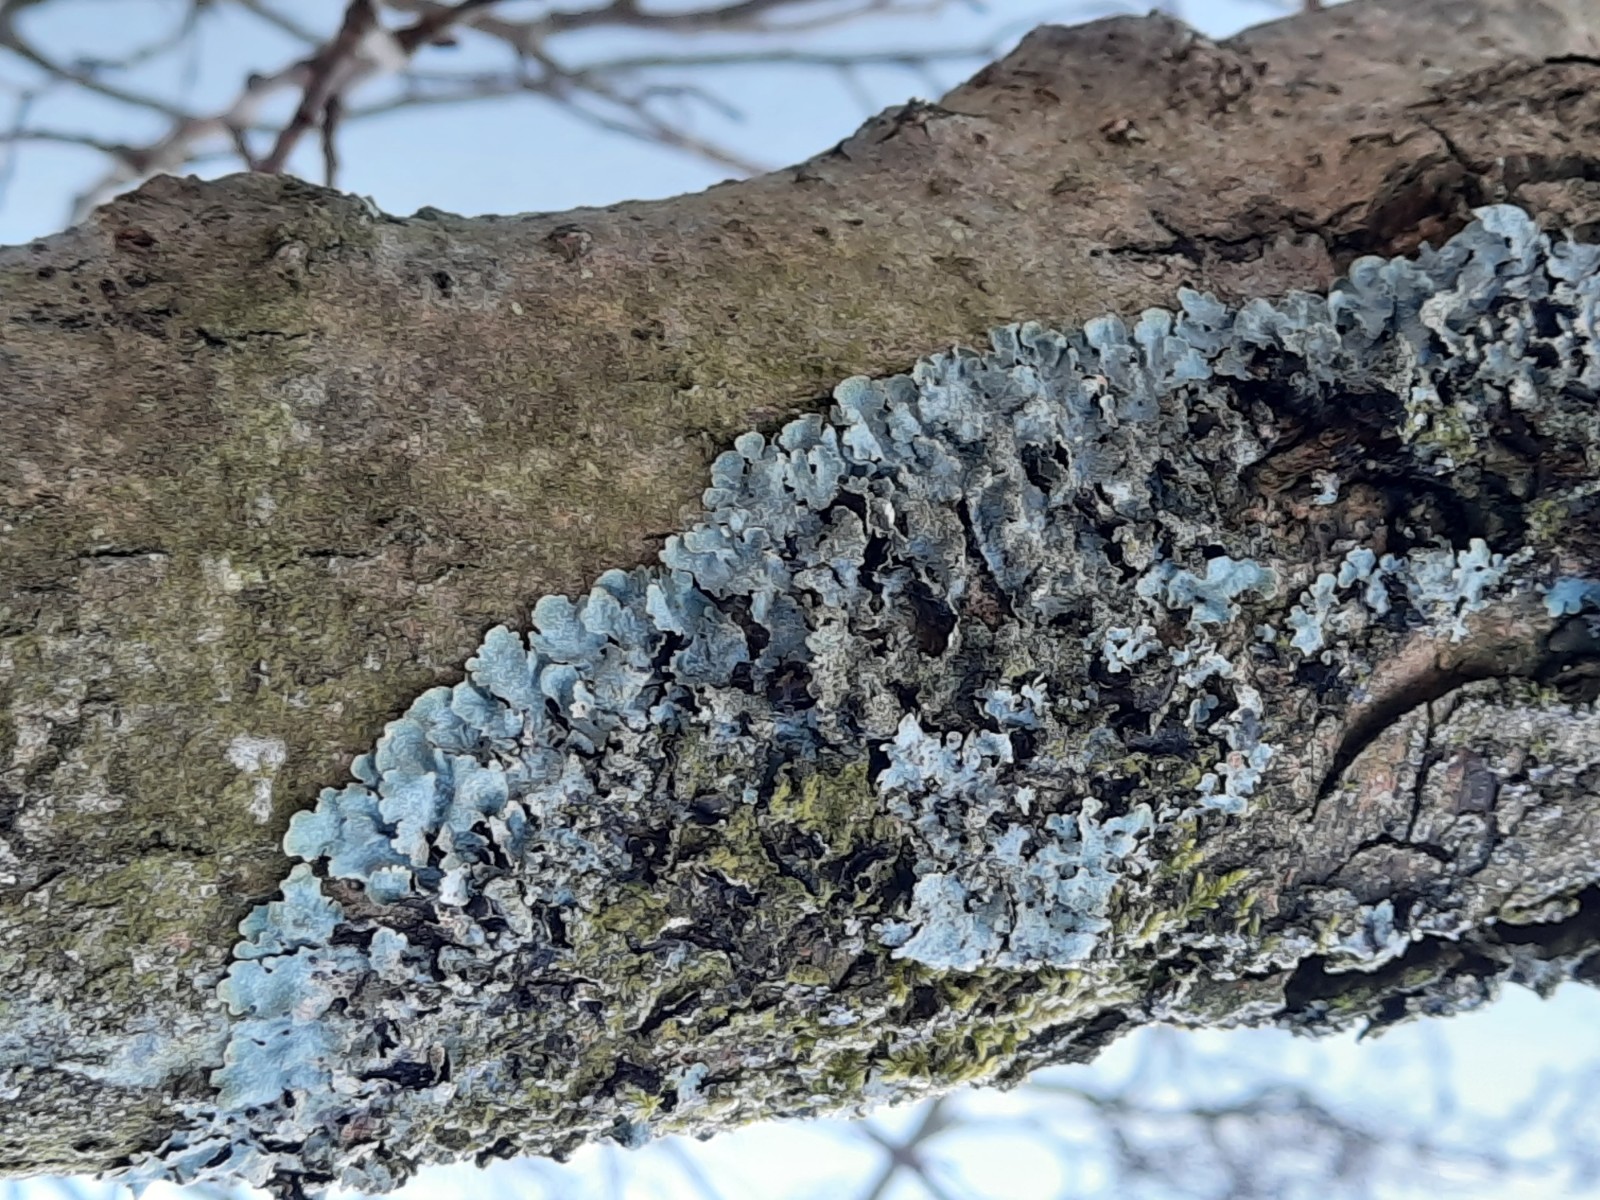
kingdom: Fungi
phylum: Ascomycota
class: Lecanoromycetes
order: Lecanorales
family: Parmeliaceae
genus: Parmelia
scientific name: Parmelia sulcata
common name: rynket skållav
